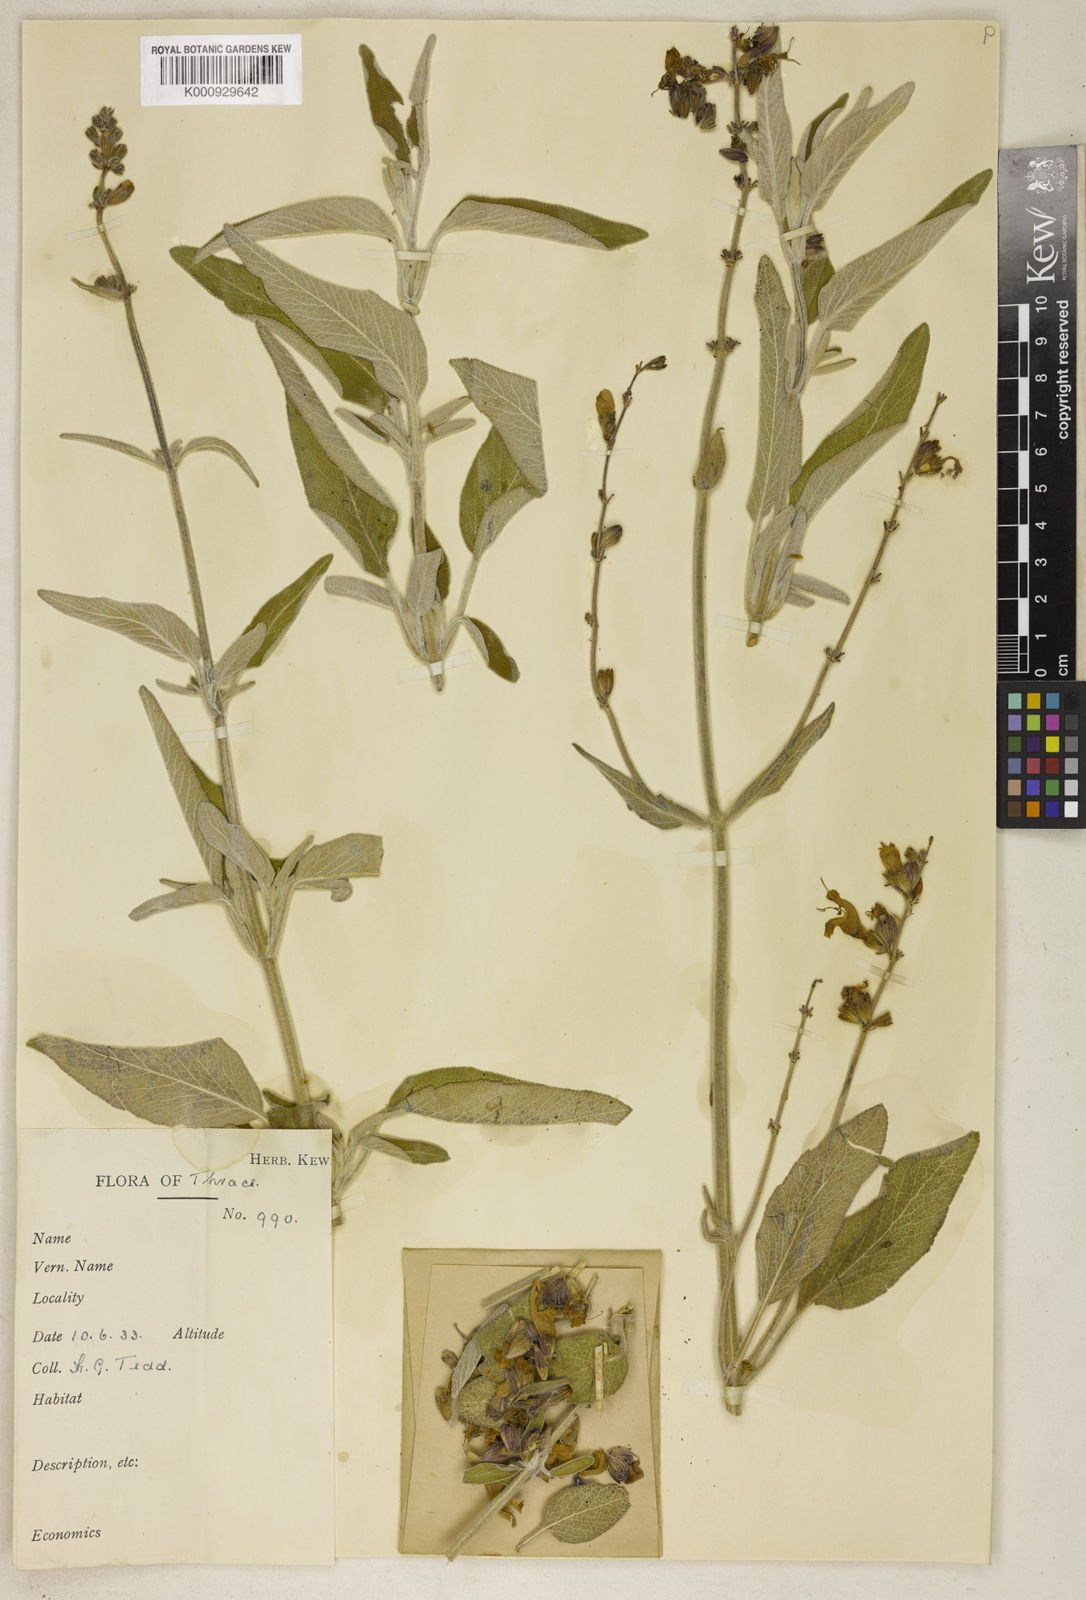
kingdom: Plantae
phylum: Tracheophyta
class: Magnoliopsida
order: Lamiales
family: Lamiaceae
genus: Salvia
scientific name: Salvia fruticosa
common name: Greek sage
